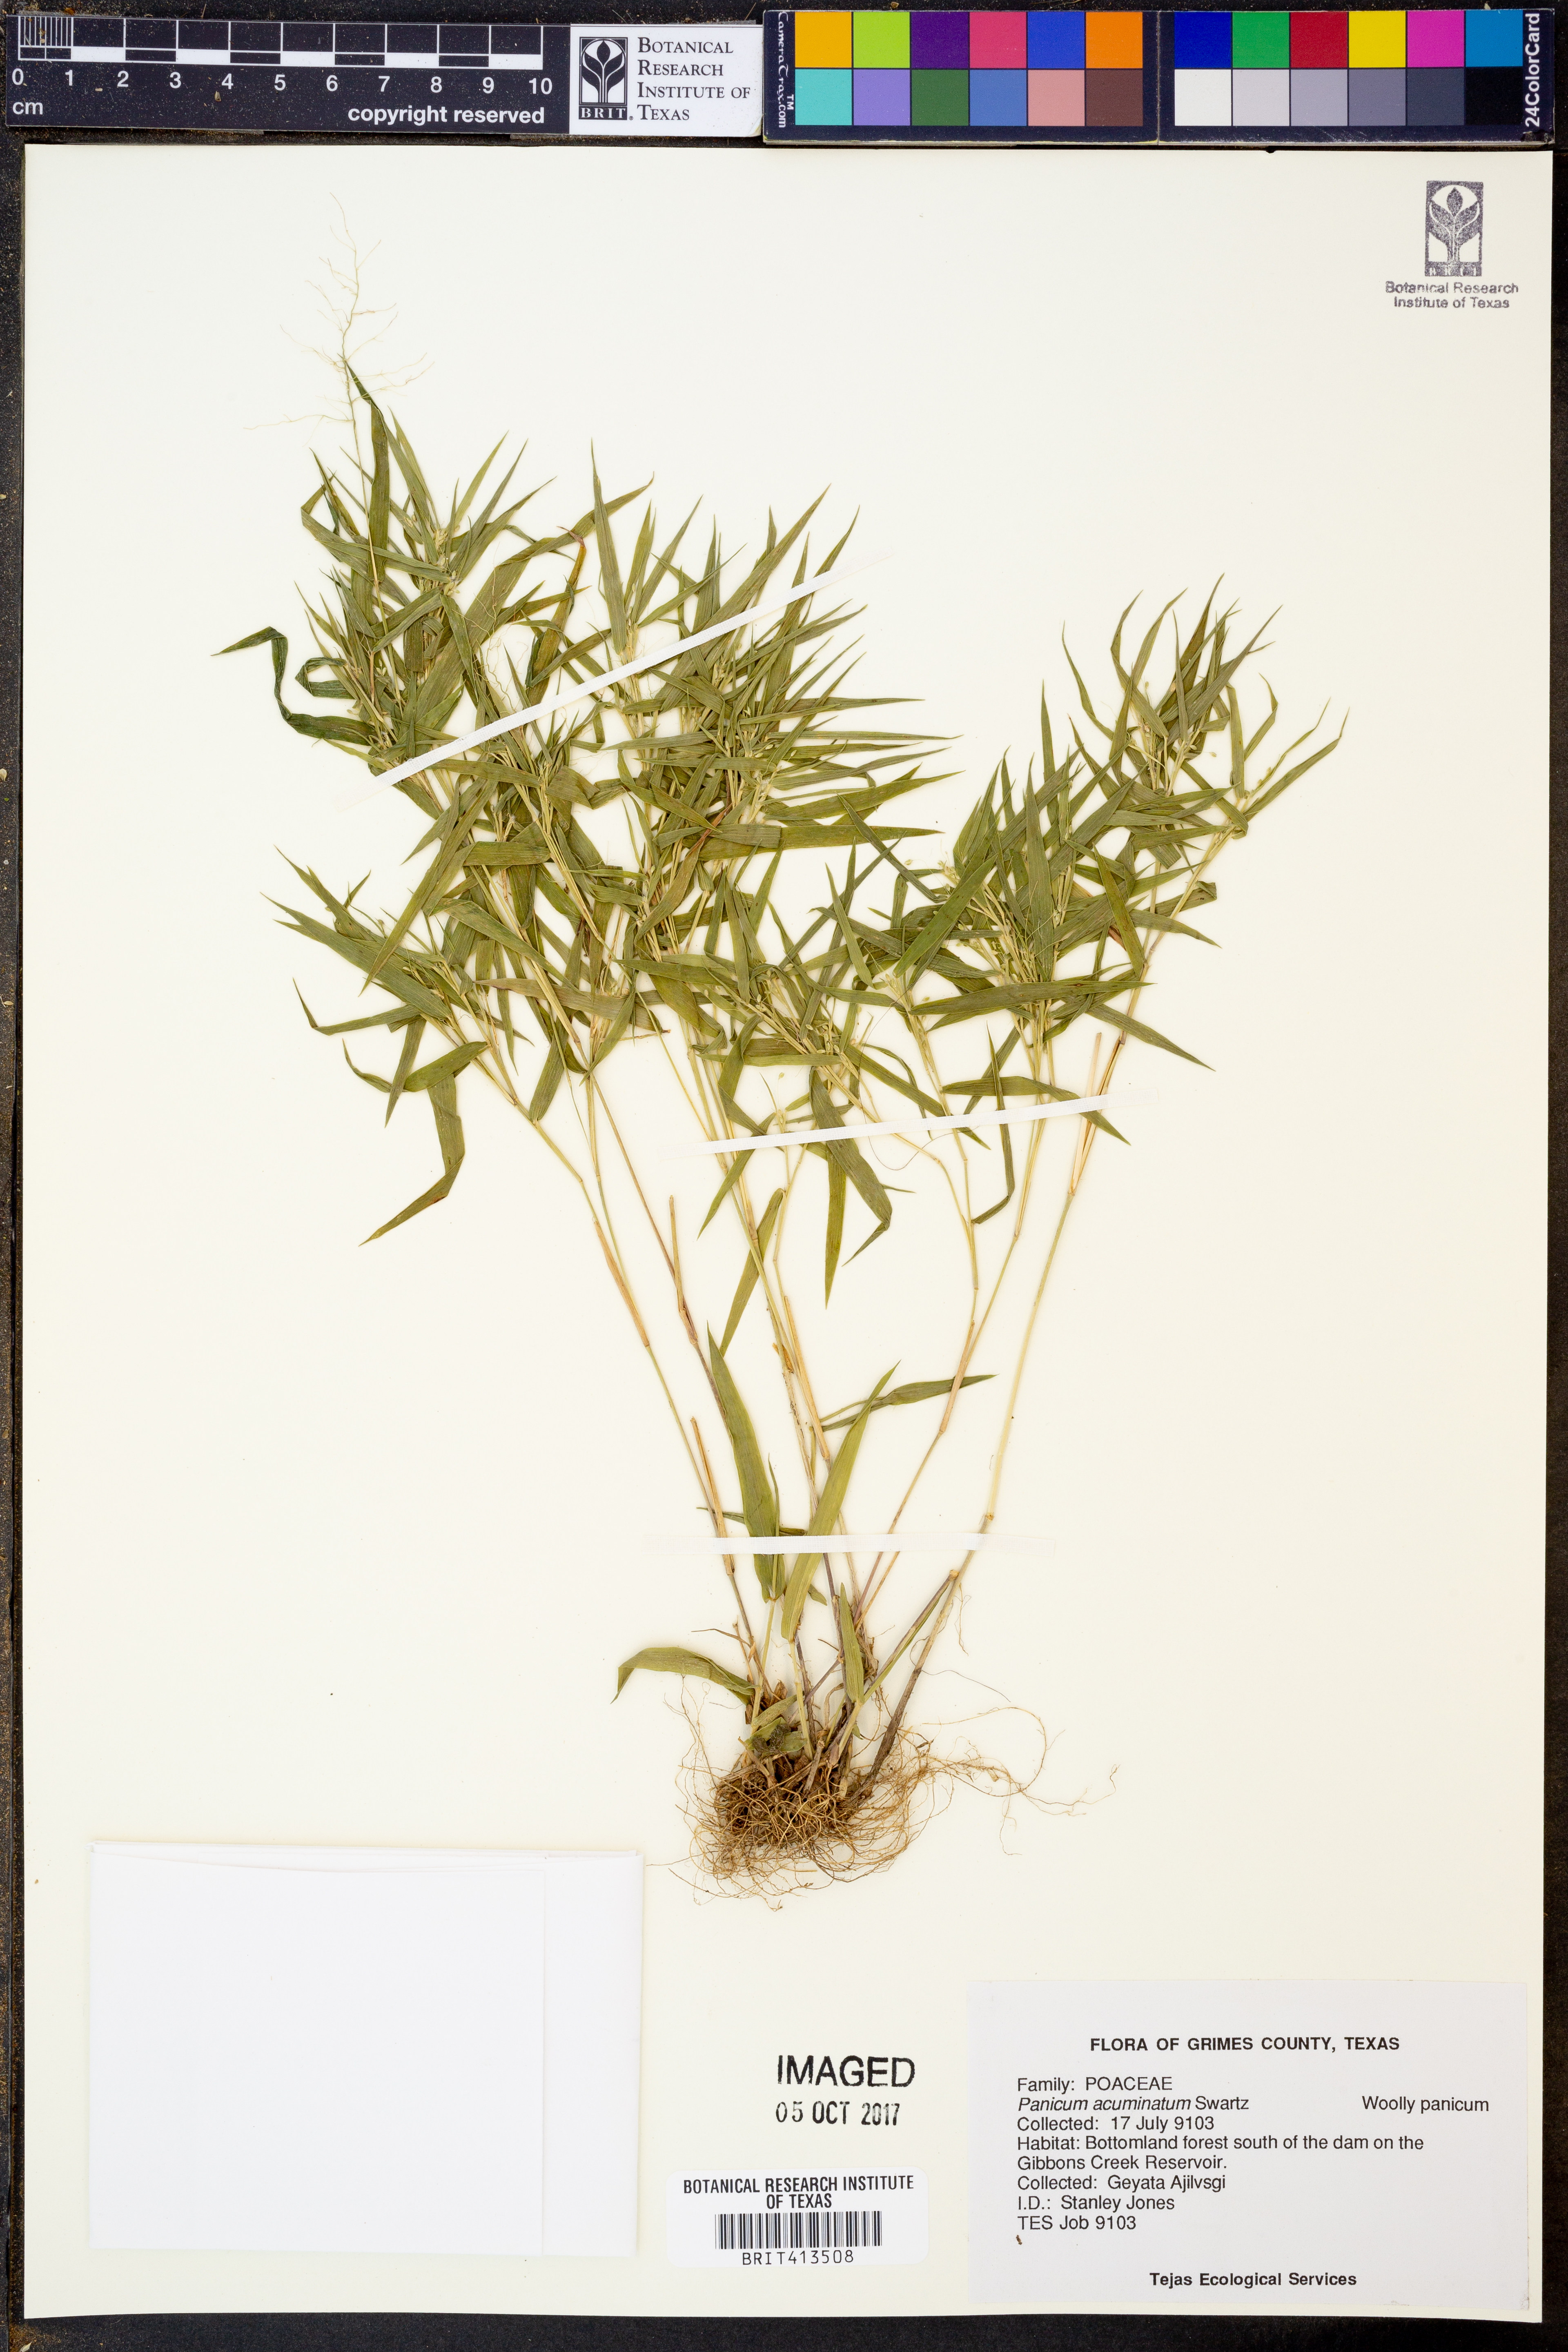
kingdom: Plantae
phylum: Tracheophyta
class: Liliopsida
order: Poales
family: Poaceae
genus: Dichanthelium
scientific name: Dichanthelium acuminatum
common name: Hairy panic grass
